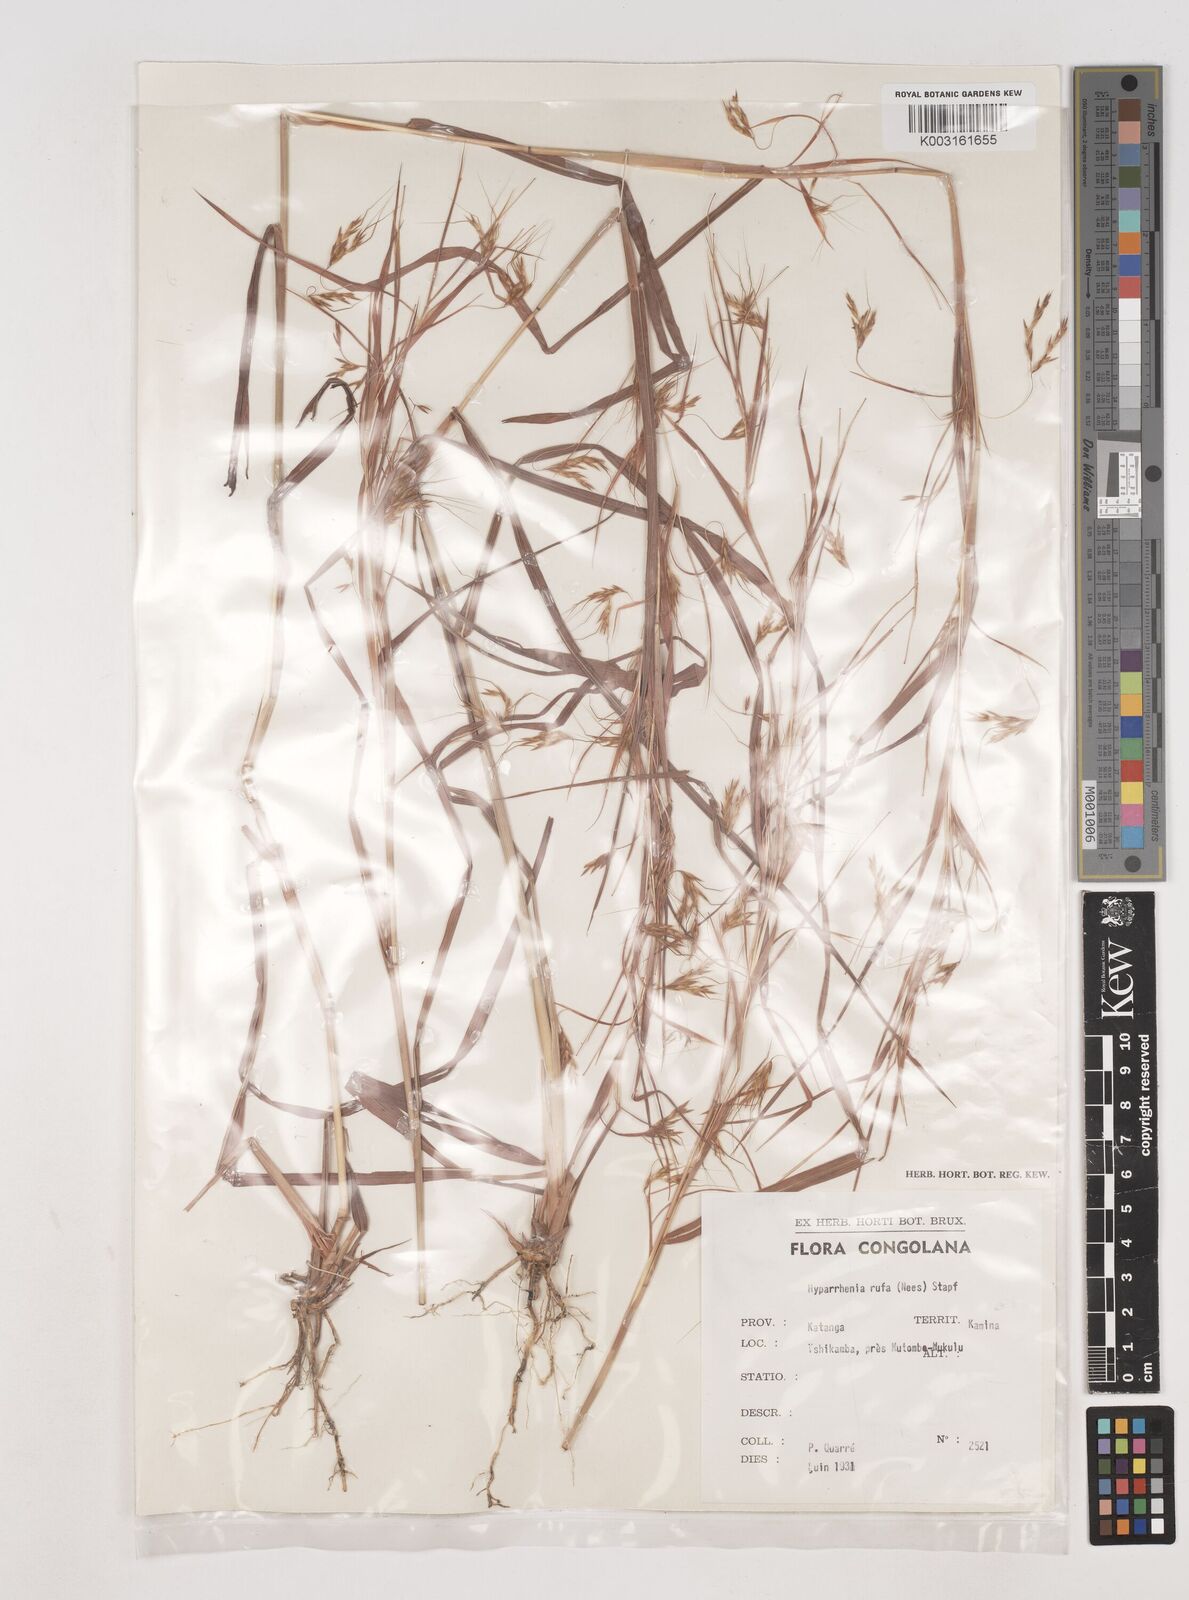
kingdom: Plantae
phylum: Tracheophyta
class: Liliopsida
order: Poales
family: Poaceae
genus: Hyparrhenia
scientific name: Hyparrhenia rufa
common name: Jaraguagrass
